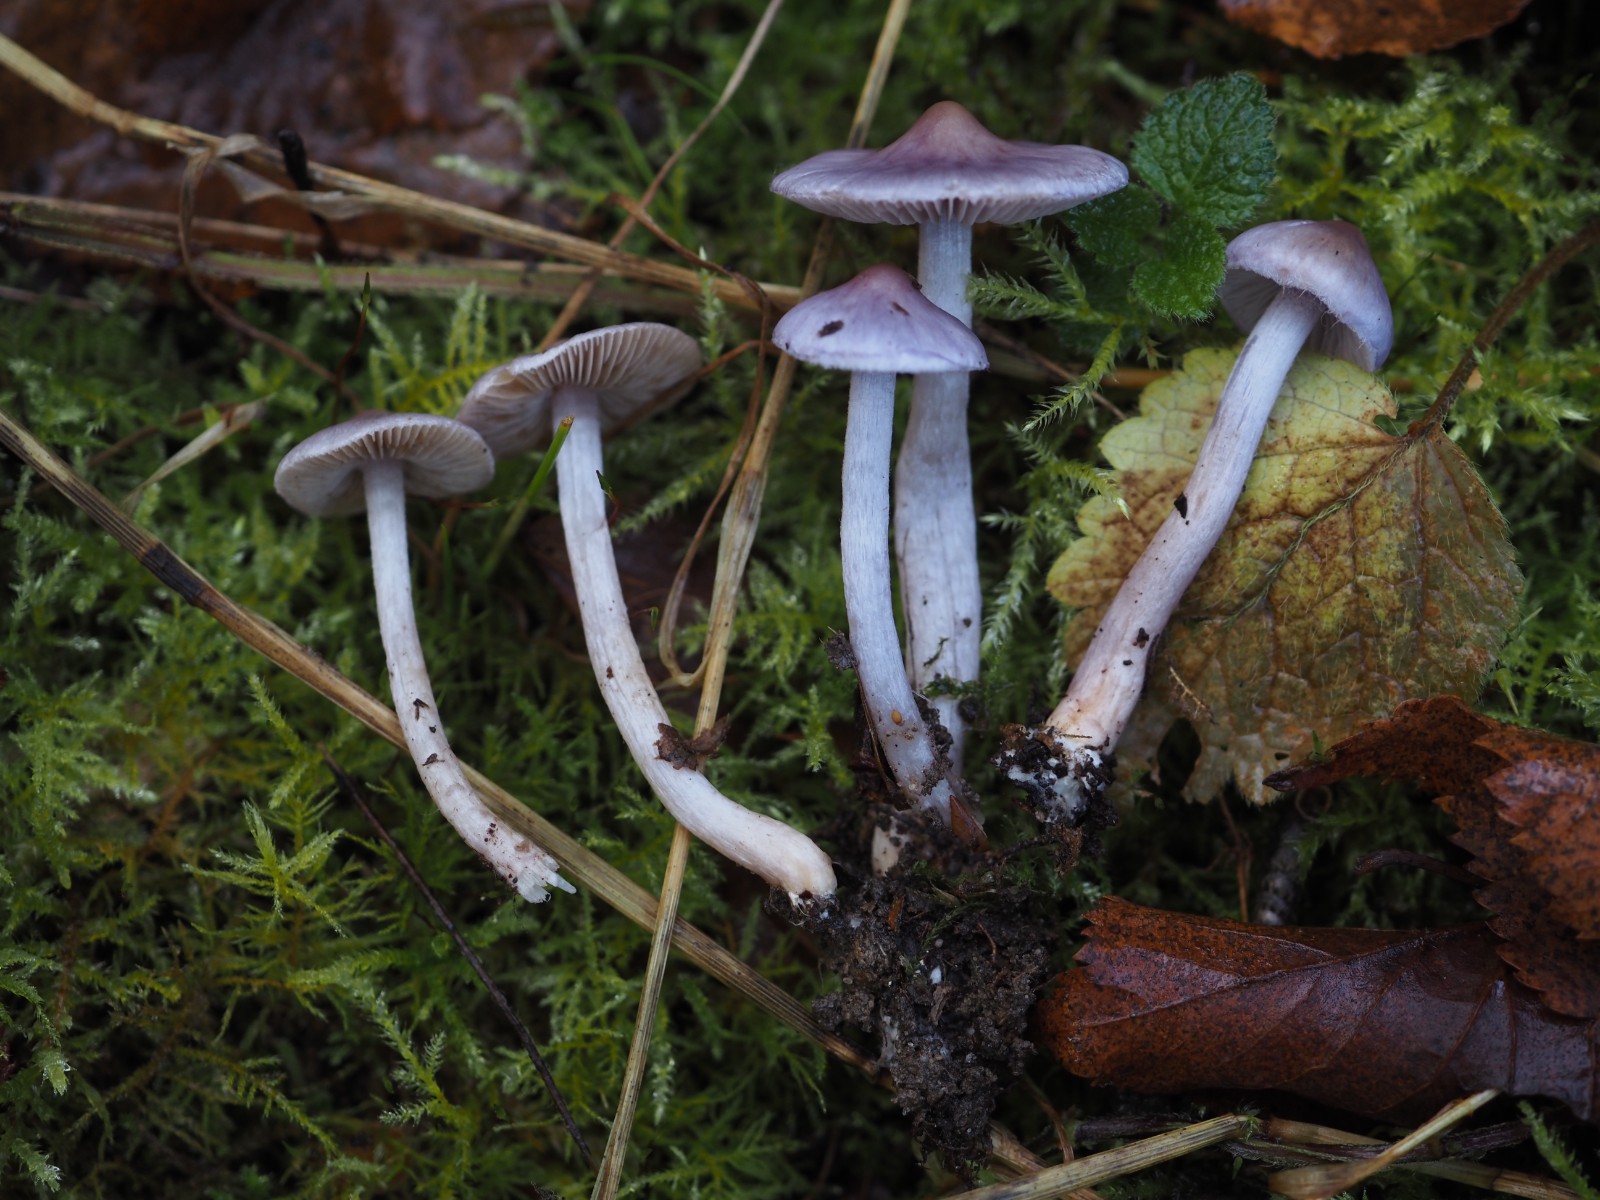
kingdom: Fungi
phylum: Basidiomycota
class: Agaricomycetes
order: Agaricales
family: Inocybaceae
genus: Inocybe
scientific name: Inocybe tyrii
